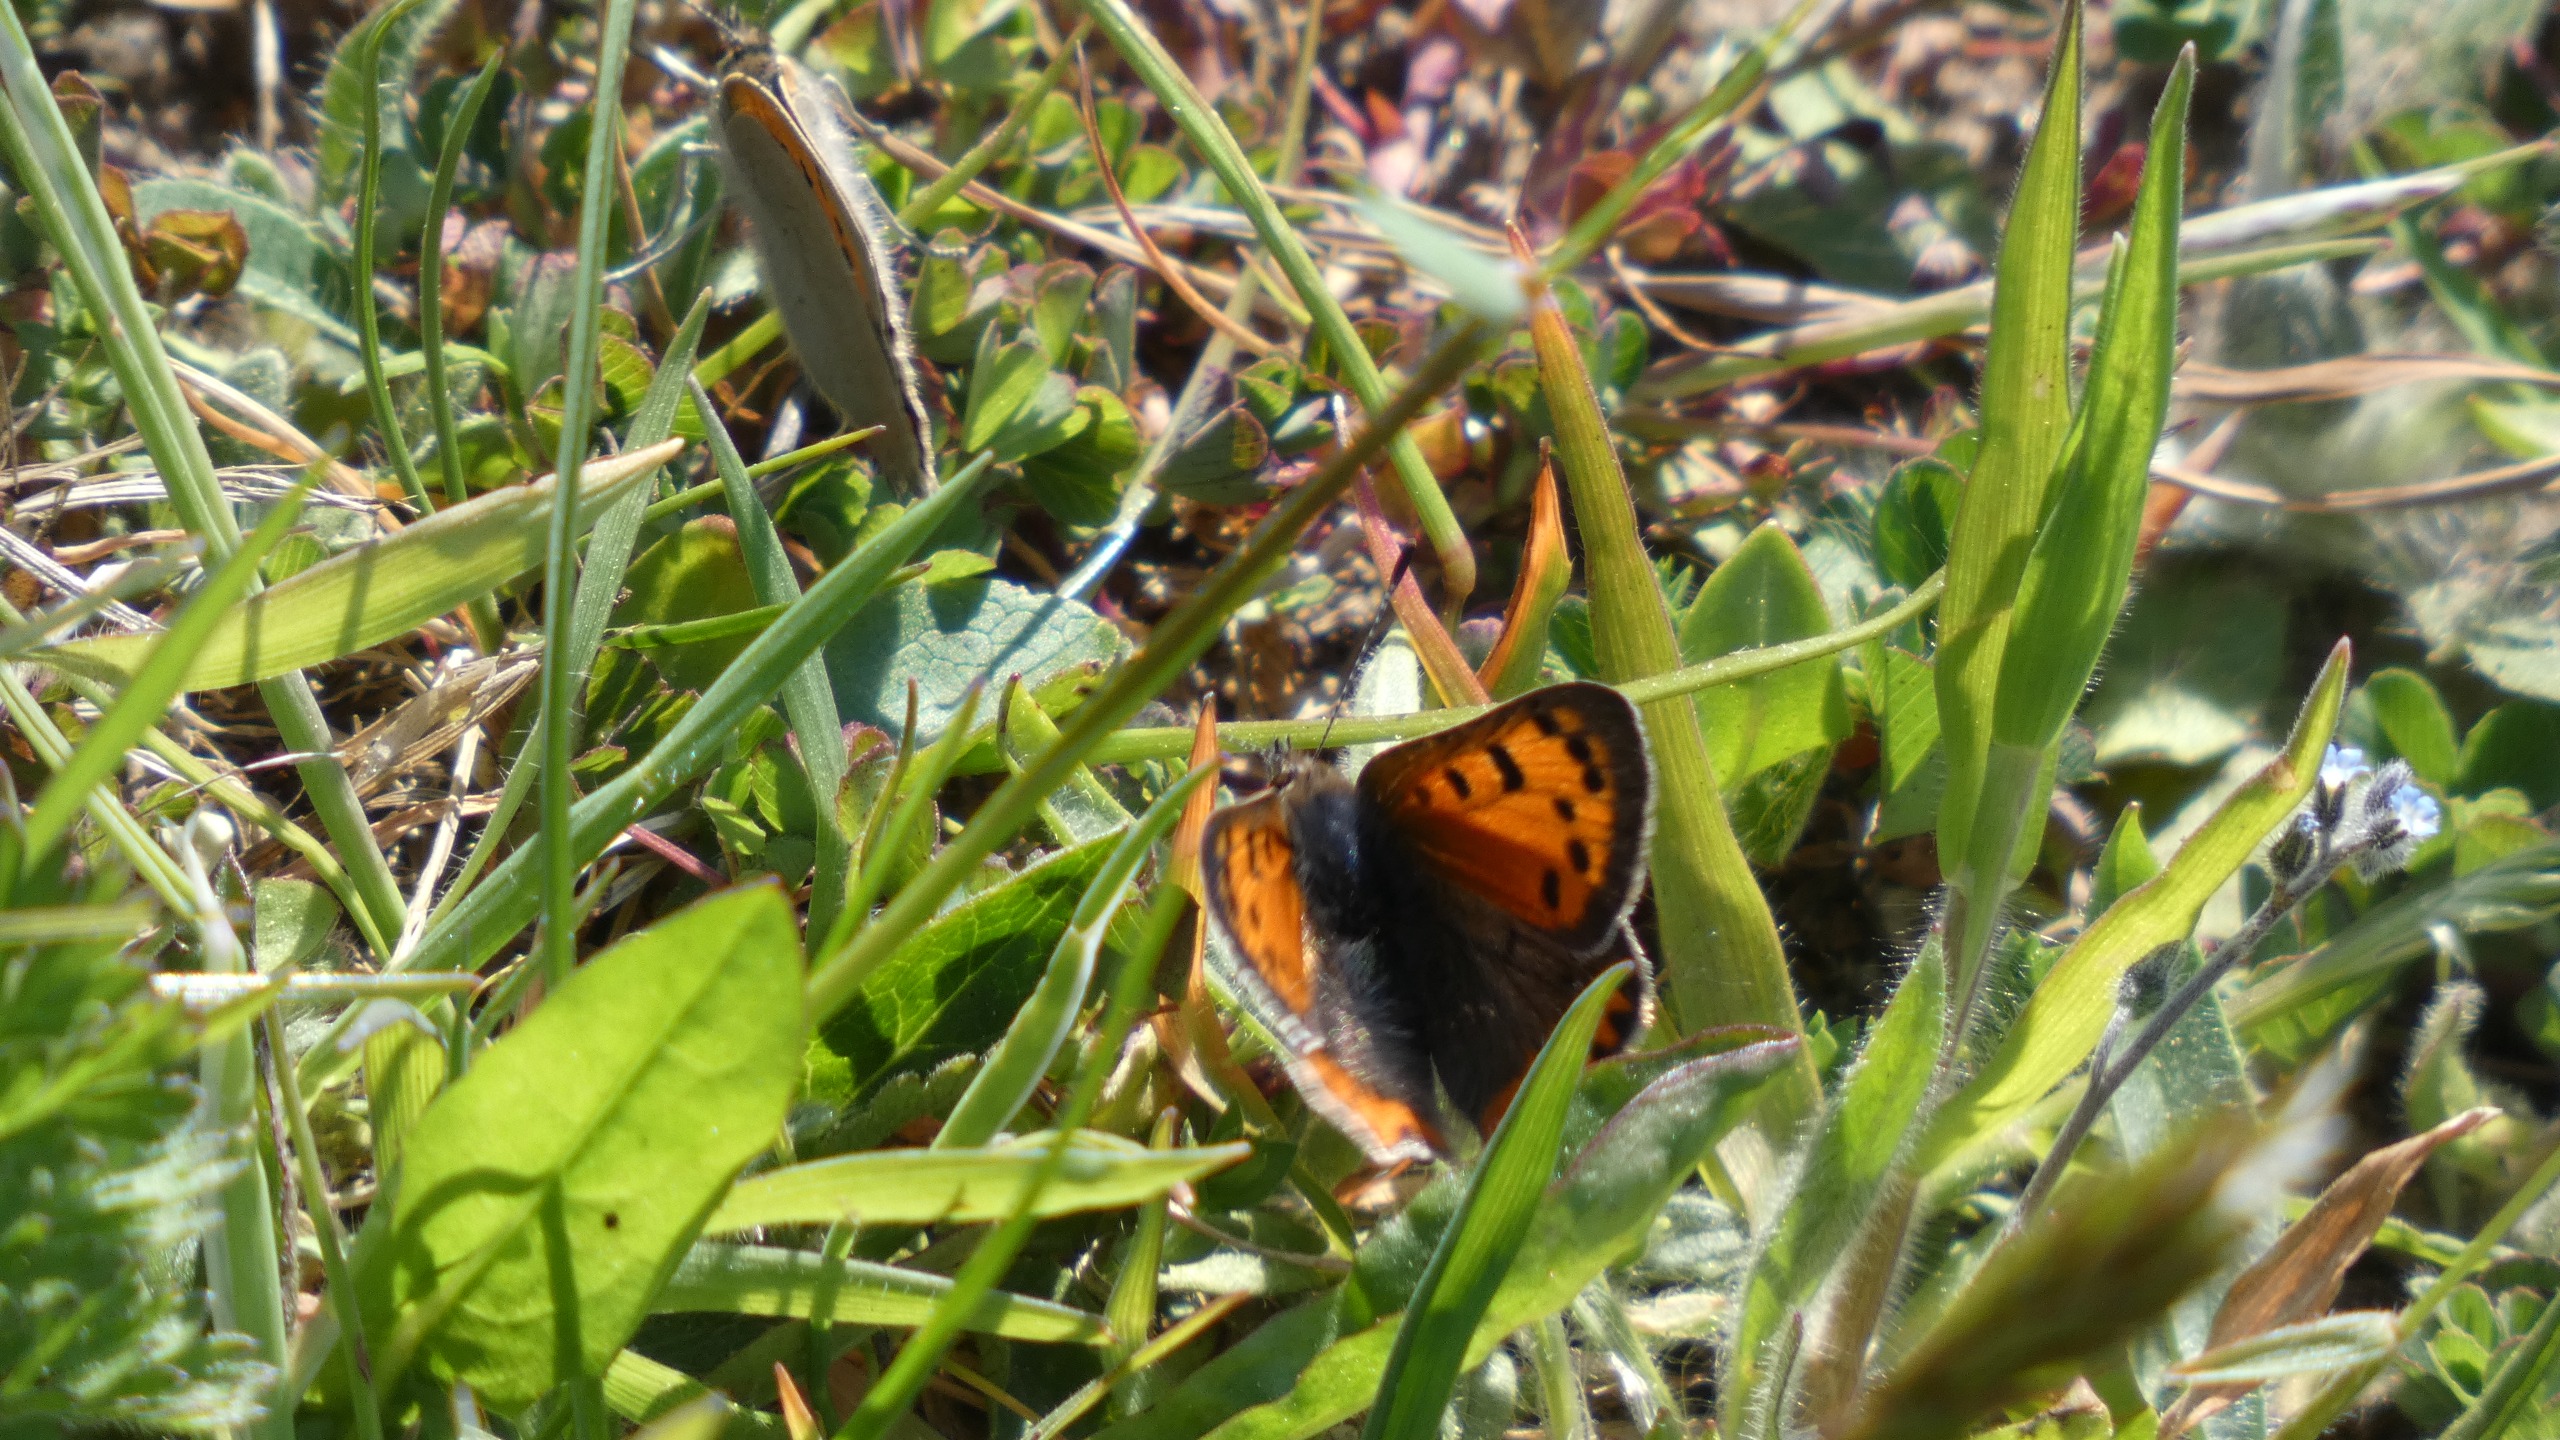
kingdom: Animalia
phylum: Arthropoda
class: Insecta
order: Lepidoptera
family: Lycaenidae
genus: Lycaena
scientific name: Lycaena phlaeas
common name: Lille ildfugl
